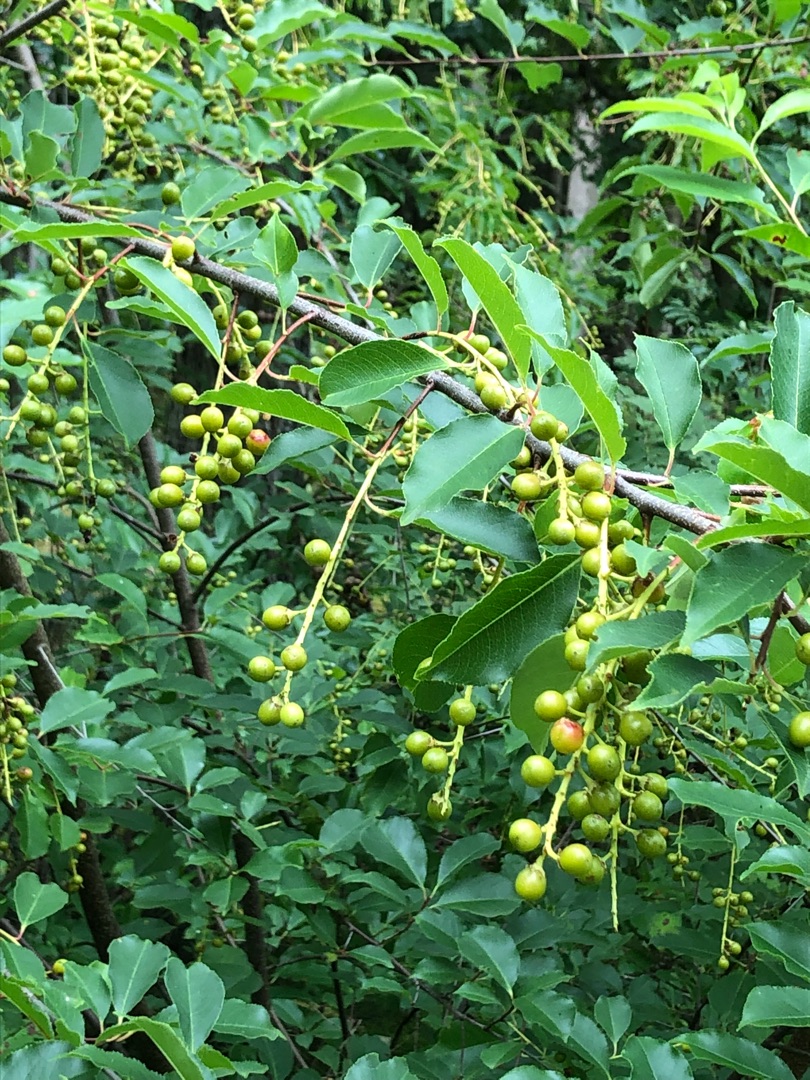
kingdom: Plantae
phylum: Tracheophyta
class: Magnoliopsida
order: Rosales
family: Rosaceae
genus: Prunus
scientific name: Prunus serotina
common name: Glansbladet hæg
